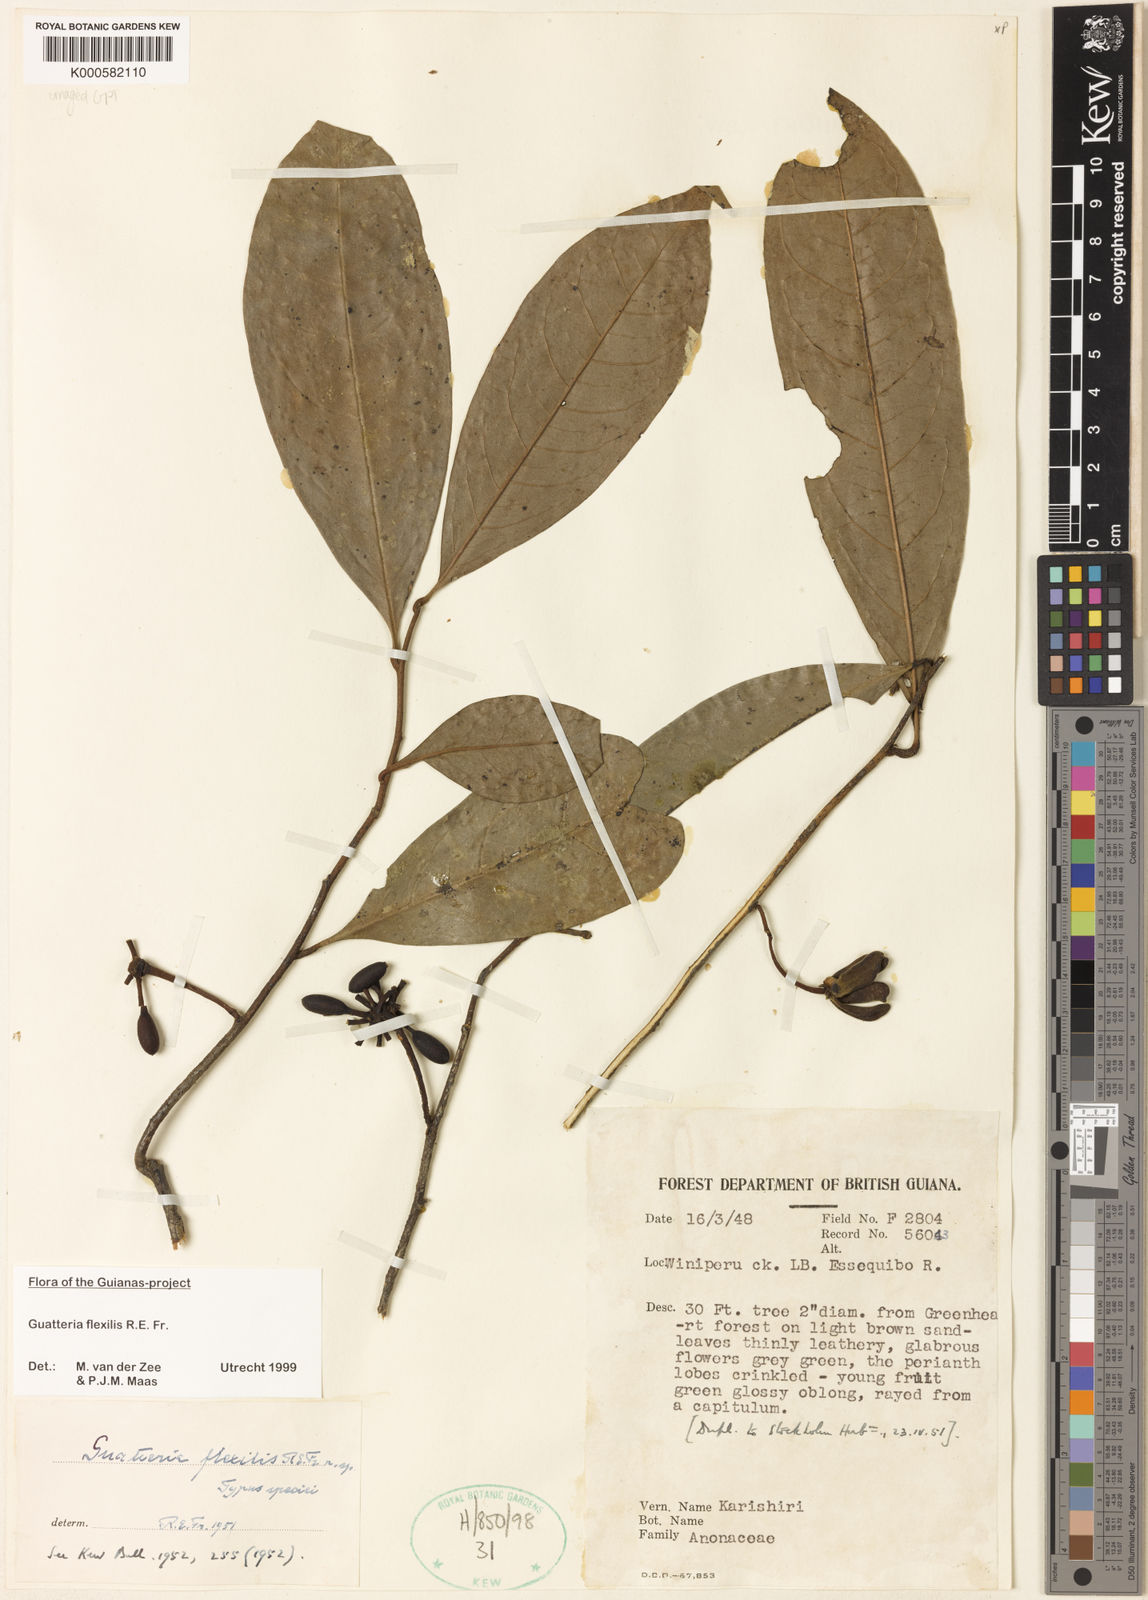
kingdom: Plantae
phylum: Tracheophyta
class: Magnoliopsida
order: Magnoliales
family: Annonaceae
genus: Guatteria
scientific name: Guatteria flexilis
